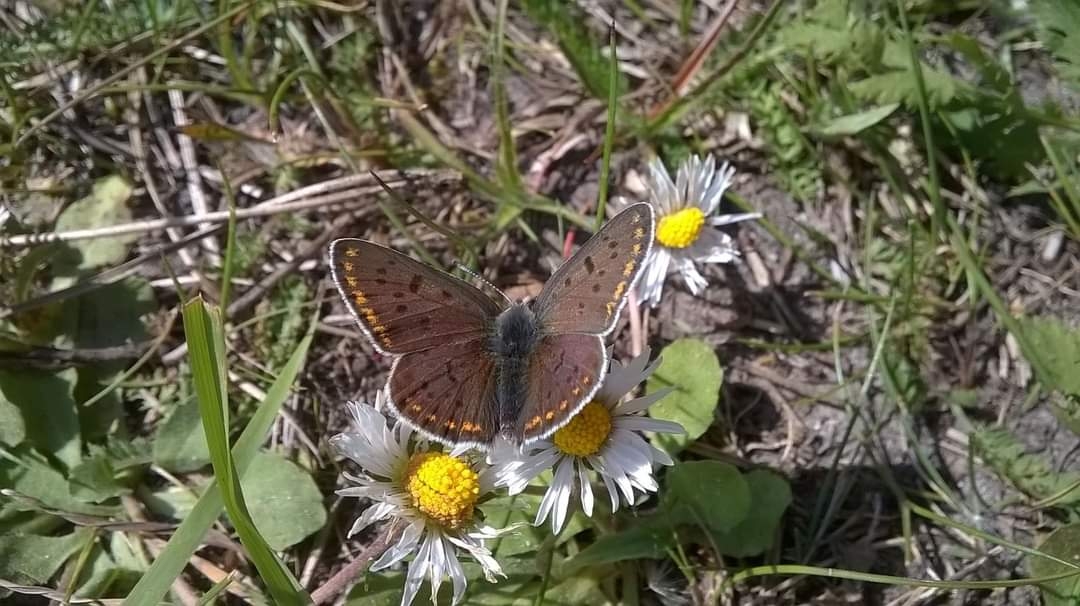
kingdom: Animalia
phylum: Arthropoda
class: Insecta
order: Lepidoptera
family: Lycaenidae
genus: Loweia
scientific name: Loweia tityrus
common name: Sort ildfugl
